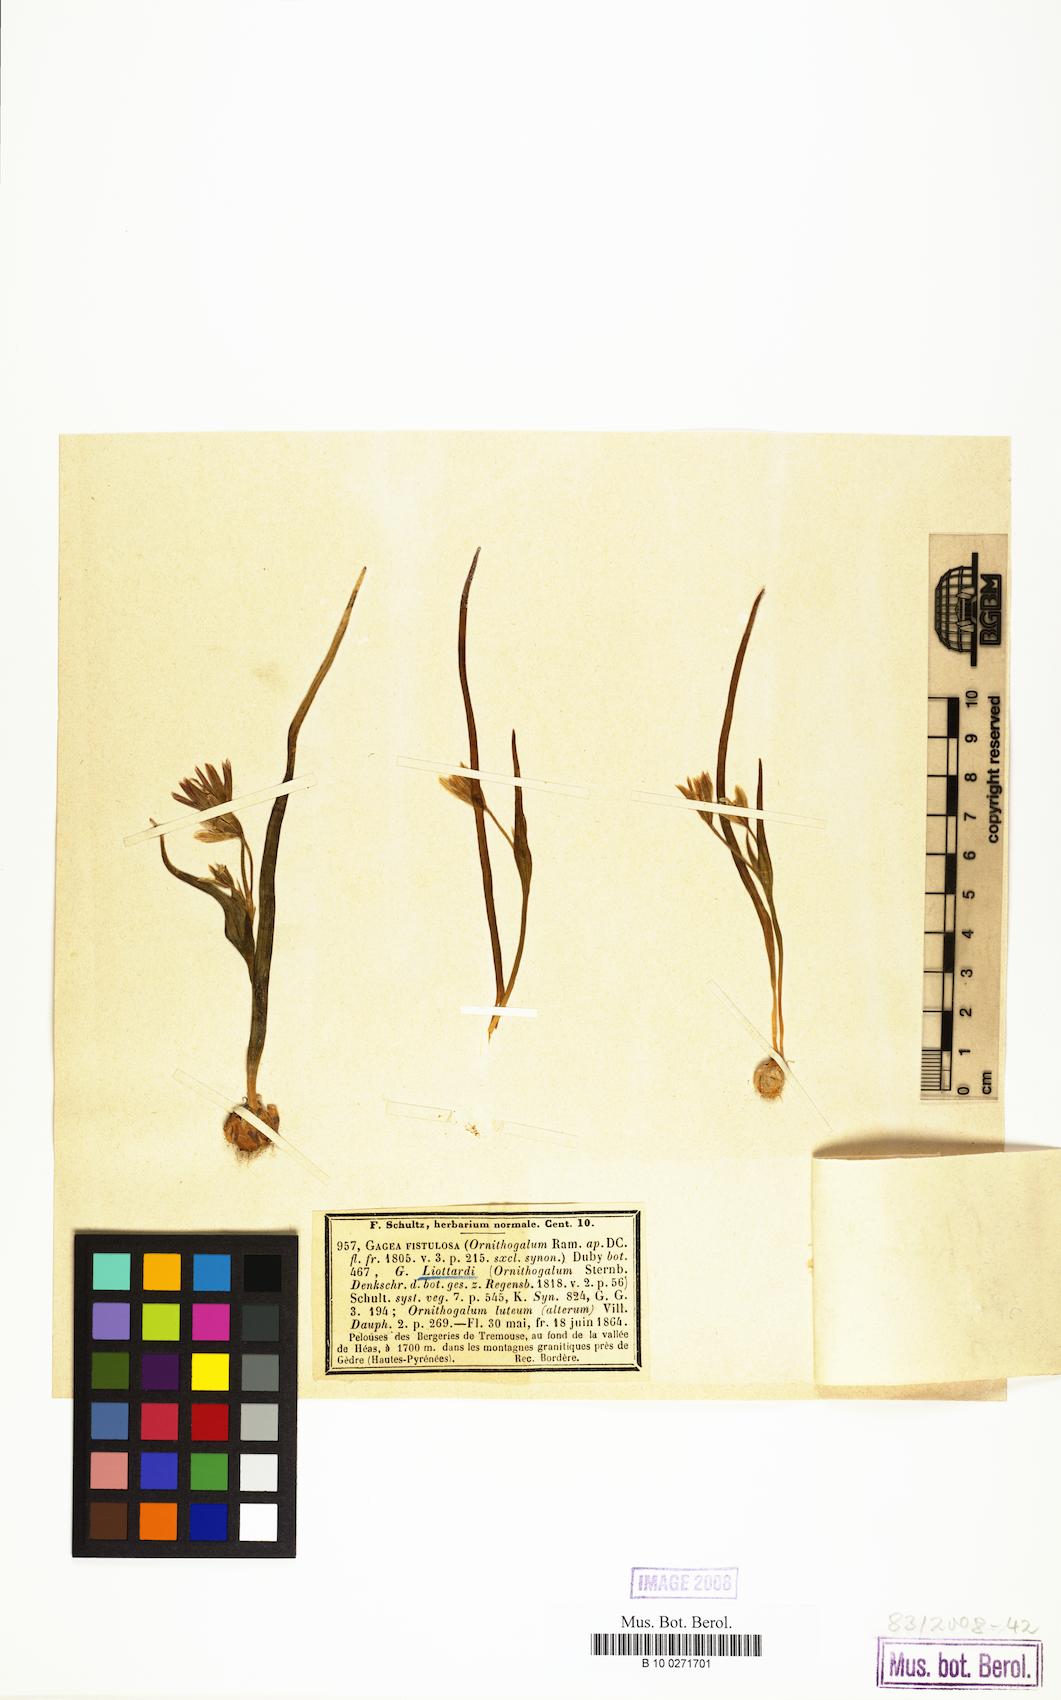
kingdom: Plantae
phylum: Tracheophyta
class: Liliopsida
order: Liliales
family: Liliaceae
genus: Gagea
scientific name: Gagea bohemica
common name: Early star-of-bethlehem
